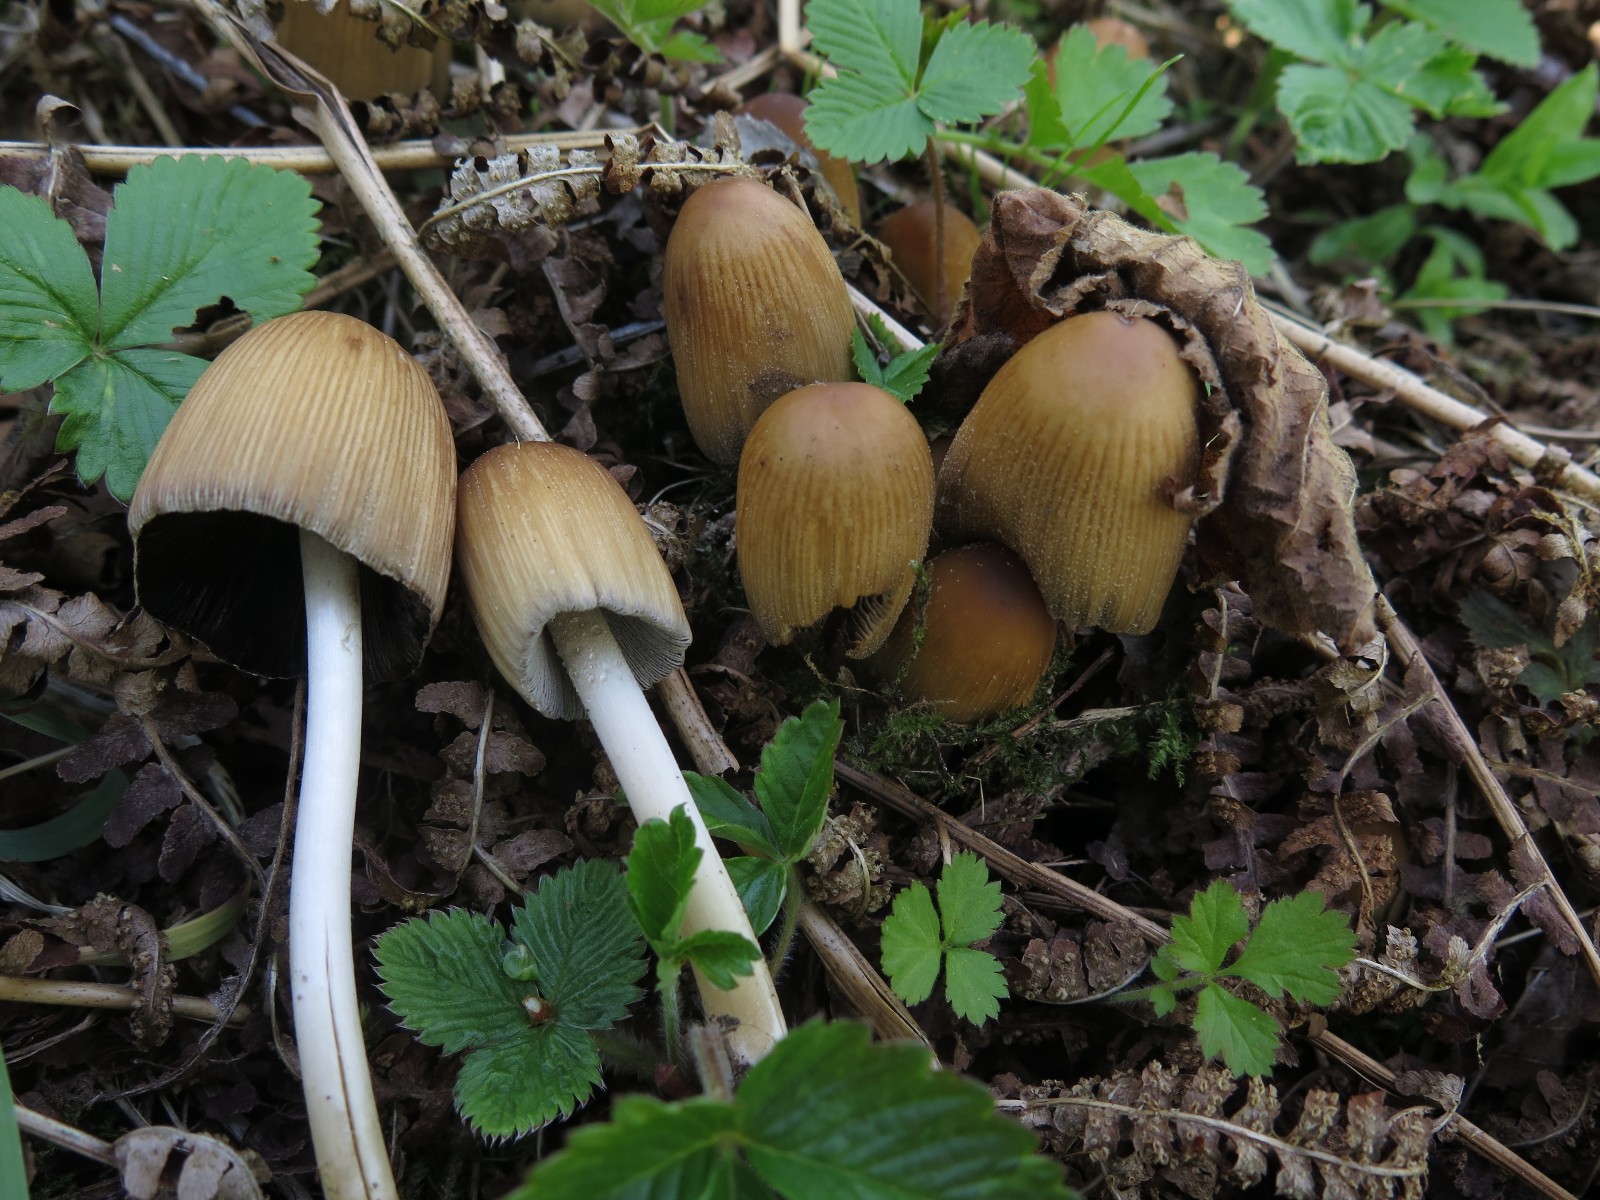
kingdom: Fungi
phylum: Basidiomycota
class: Agaricomycetes
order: Agaricales
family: Psathyrellaceae
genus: Coprinellus
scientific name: Coprinellus micaceus
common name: glimmer-blækhat
